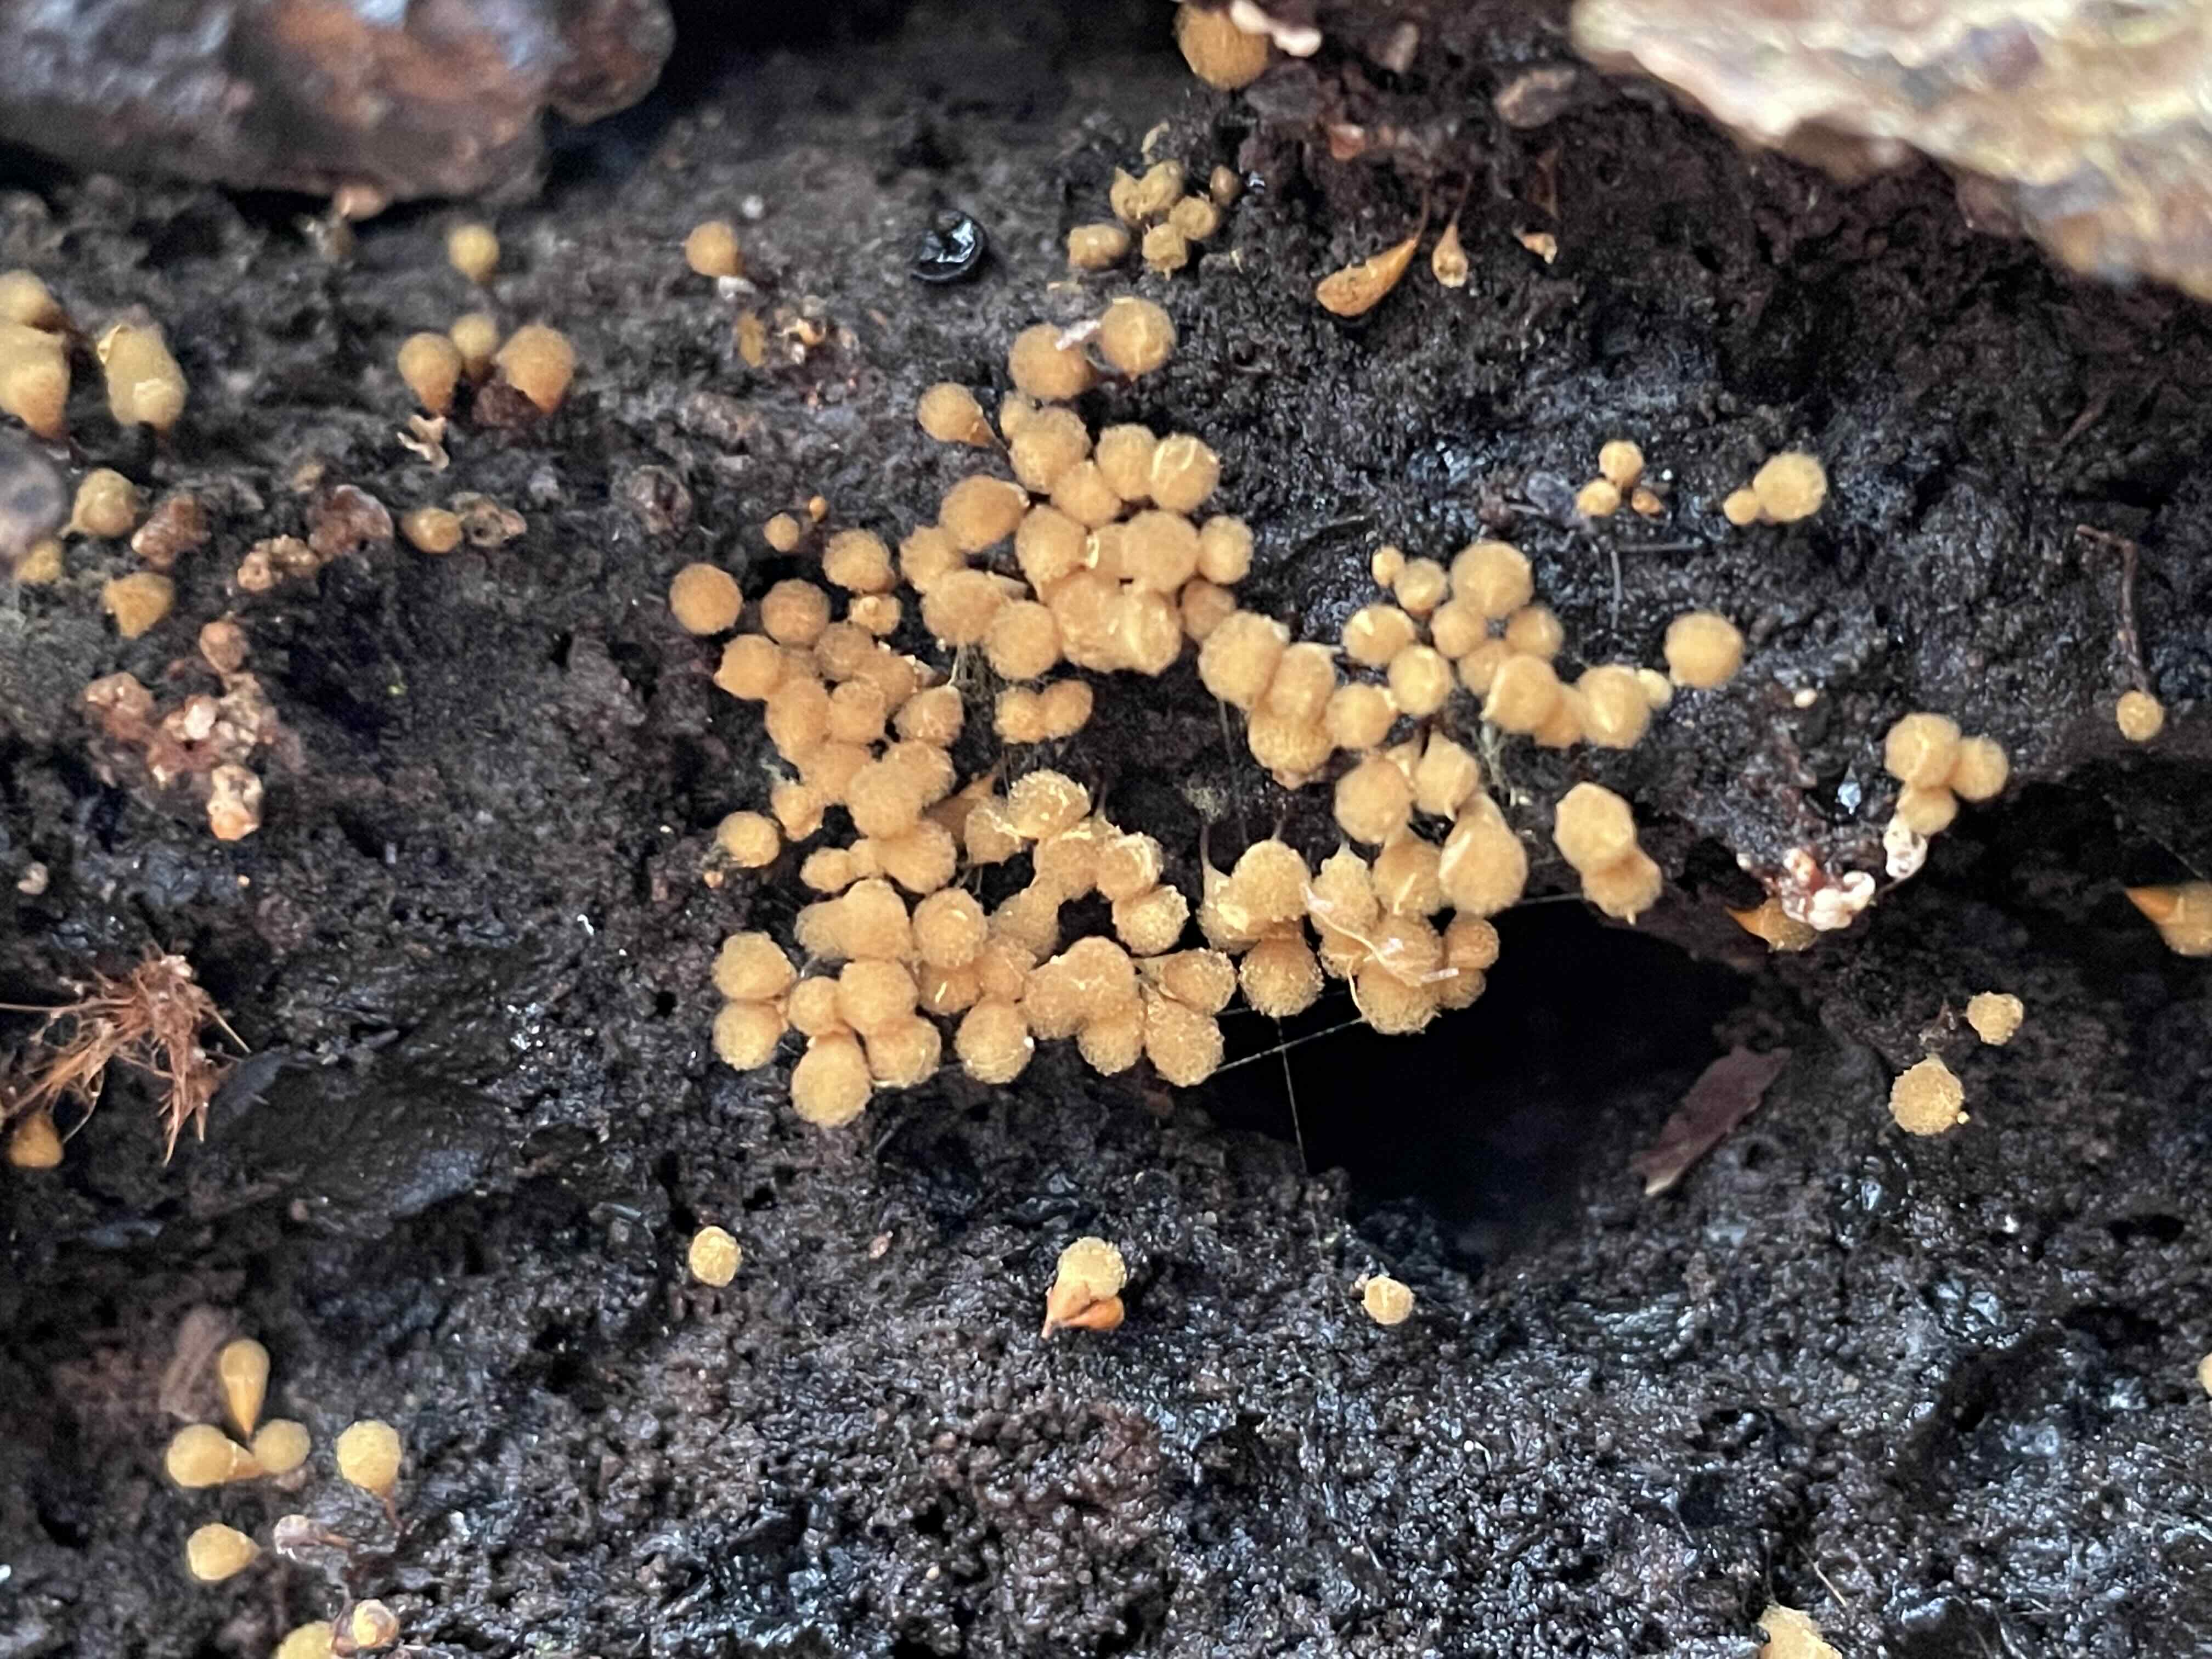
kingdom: Protozoa
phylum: Mycetozoa
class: Myxomycetes
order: Trichiales
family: Arcyriaceae
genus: Hemitrichia
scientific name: Hemitrichia clavata
